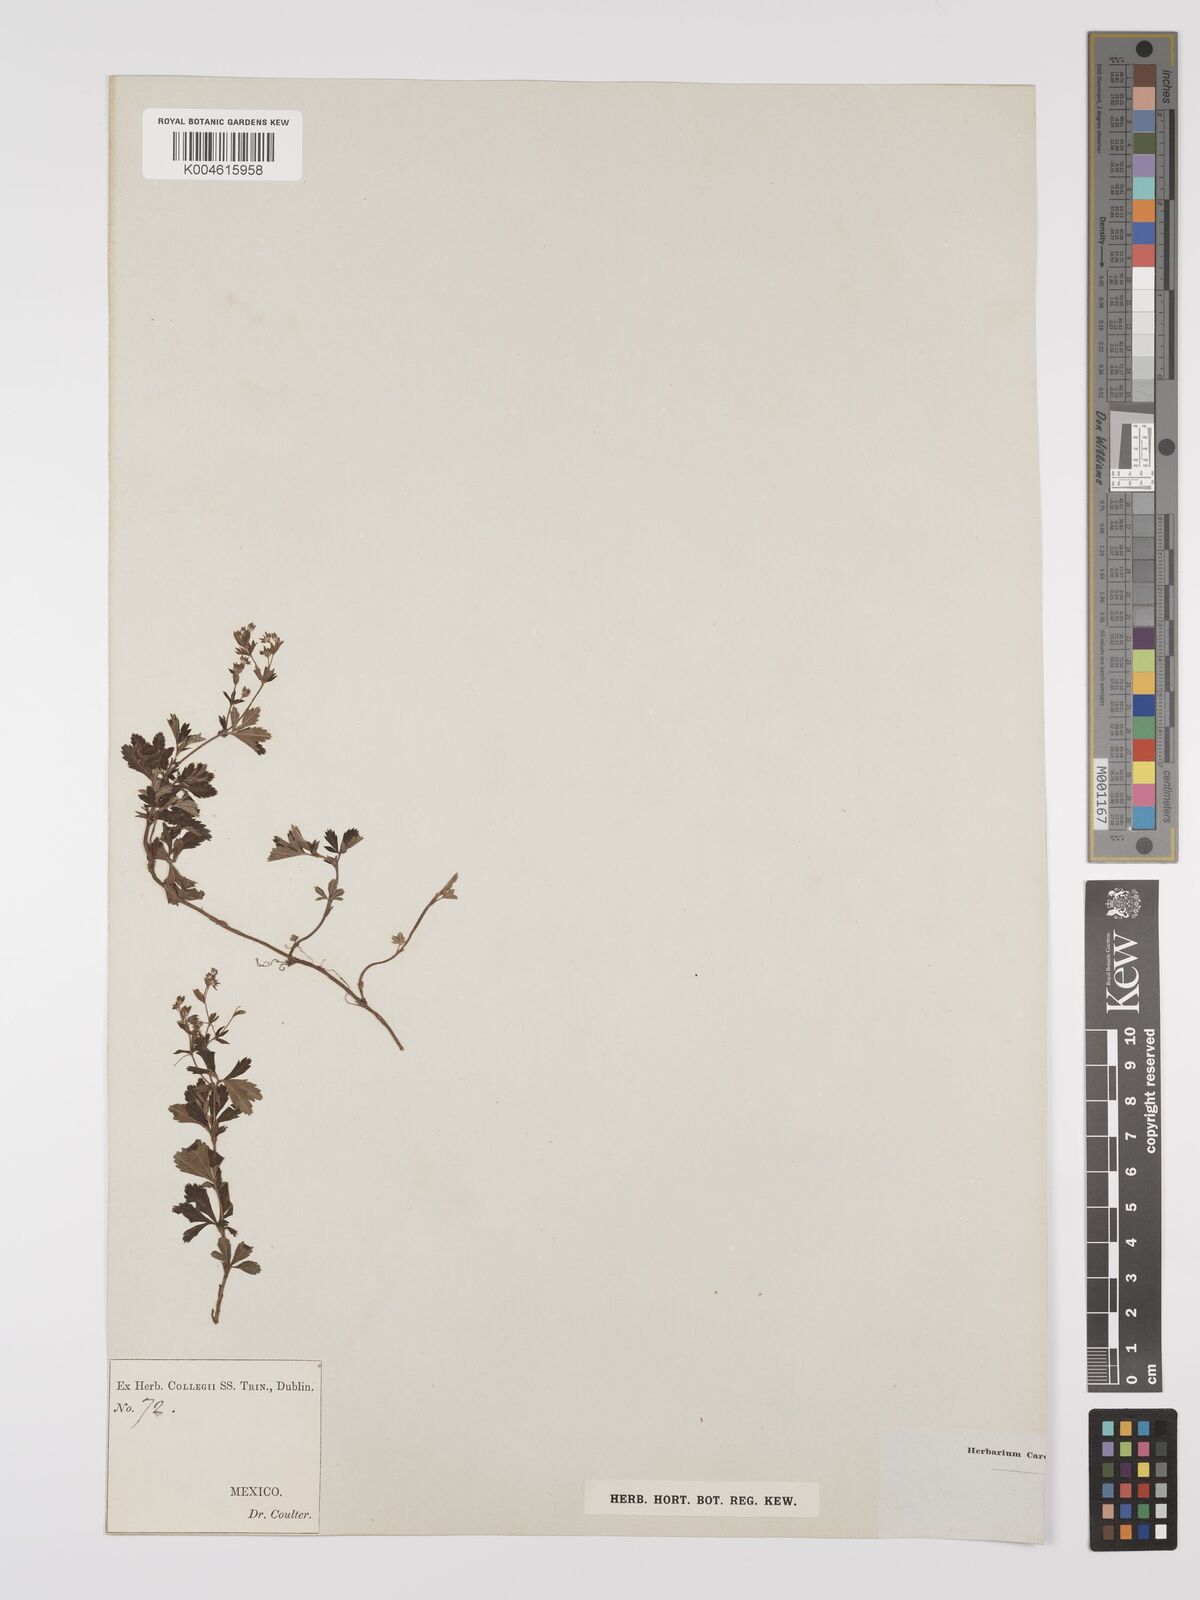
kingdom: Plantae
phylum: Tracheophyta
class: Magnoliopsida
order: Rosales
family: Rosaceae
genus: Lachemilla
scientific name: Lachemilla procumbens
